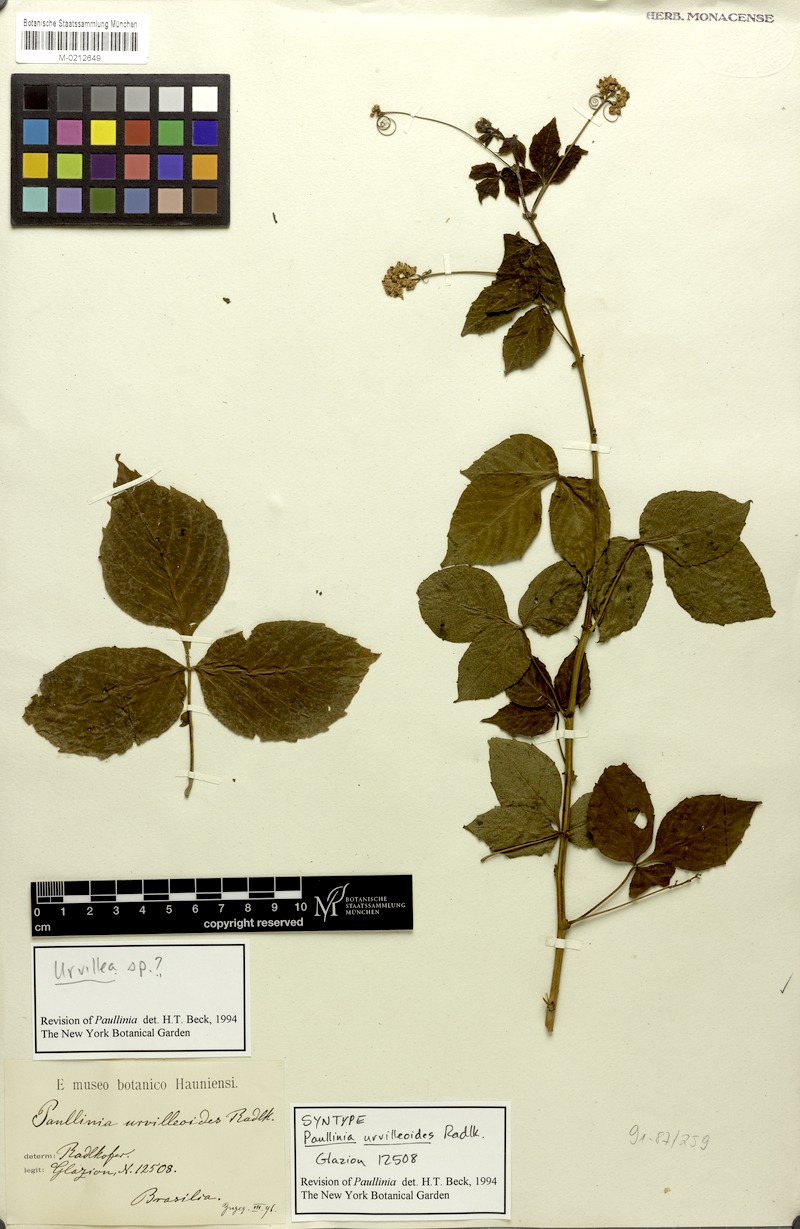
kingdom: Plantae
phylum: Tracheophyta
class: Magnoliopsida
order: Sapindales
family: Sapindaceae
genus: Serjania
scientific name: Serjania urvilleoides
